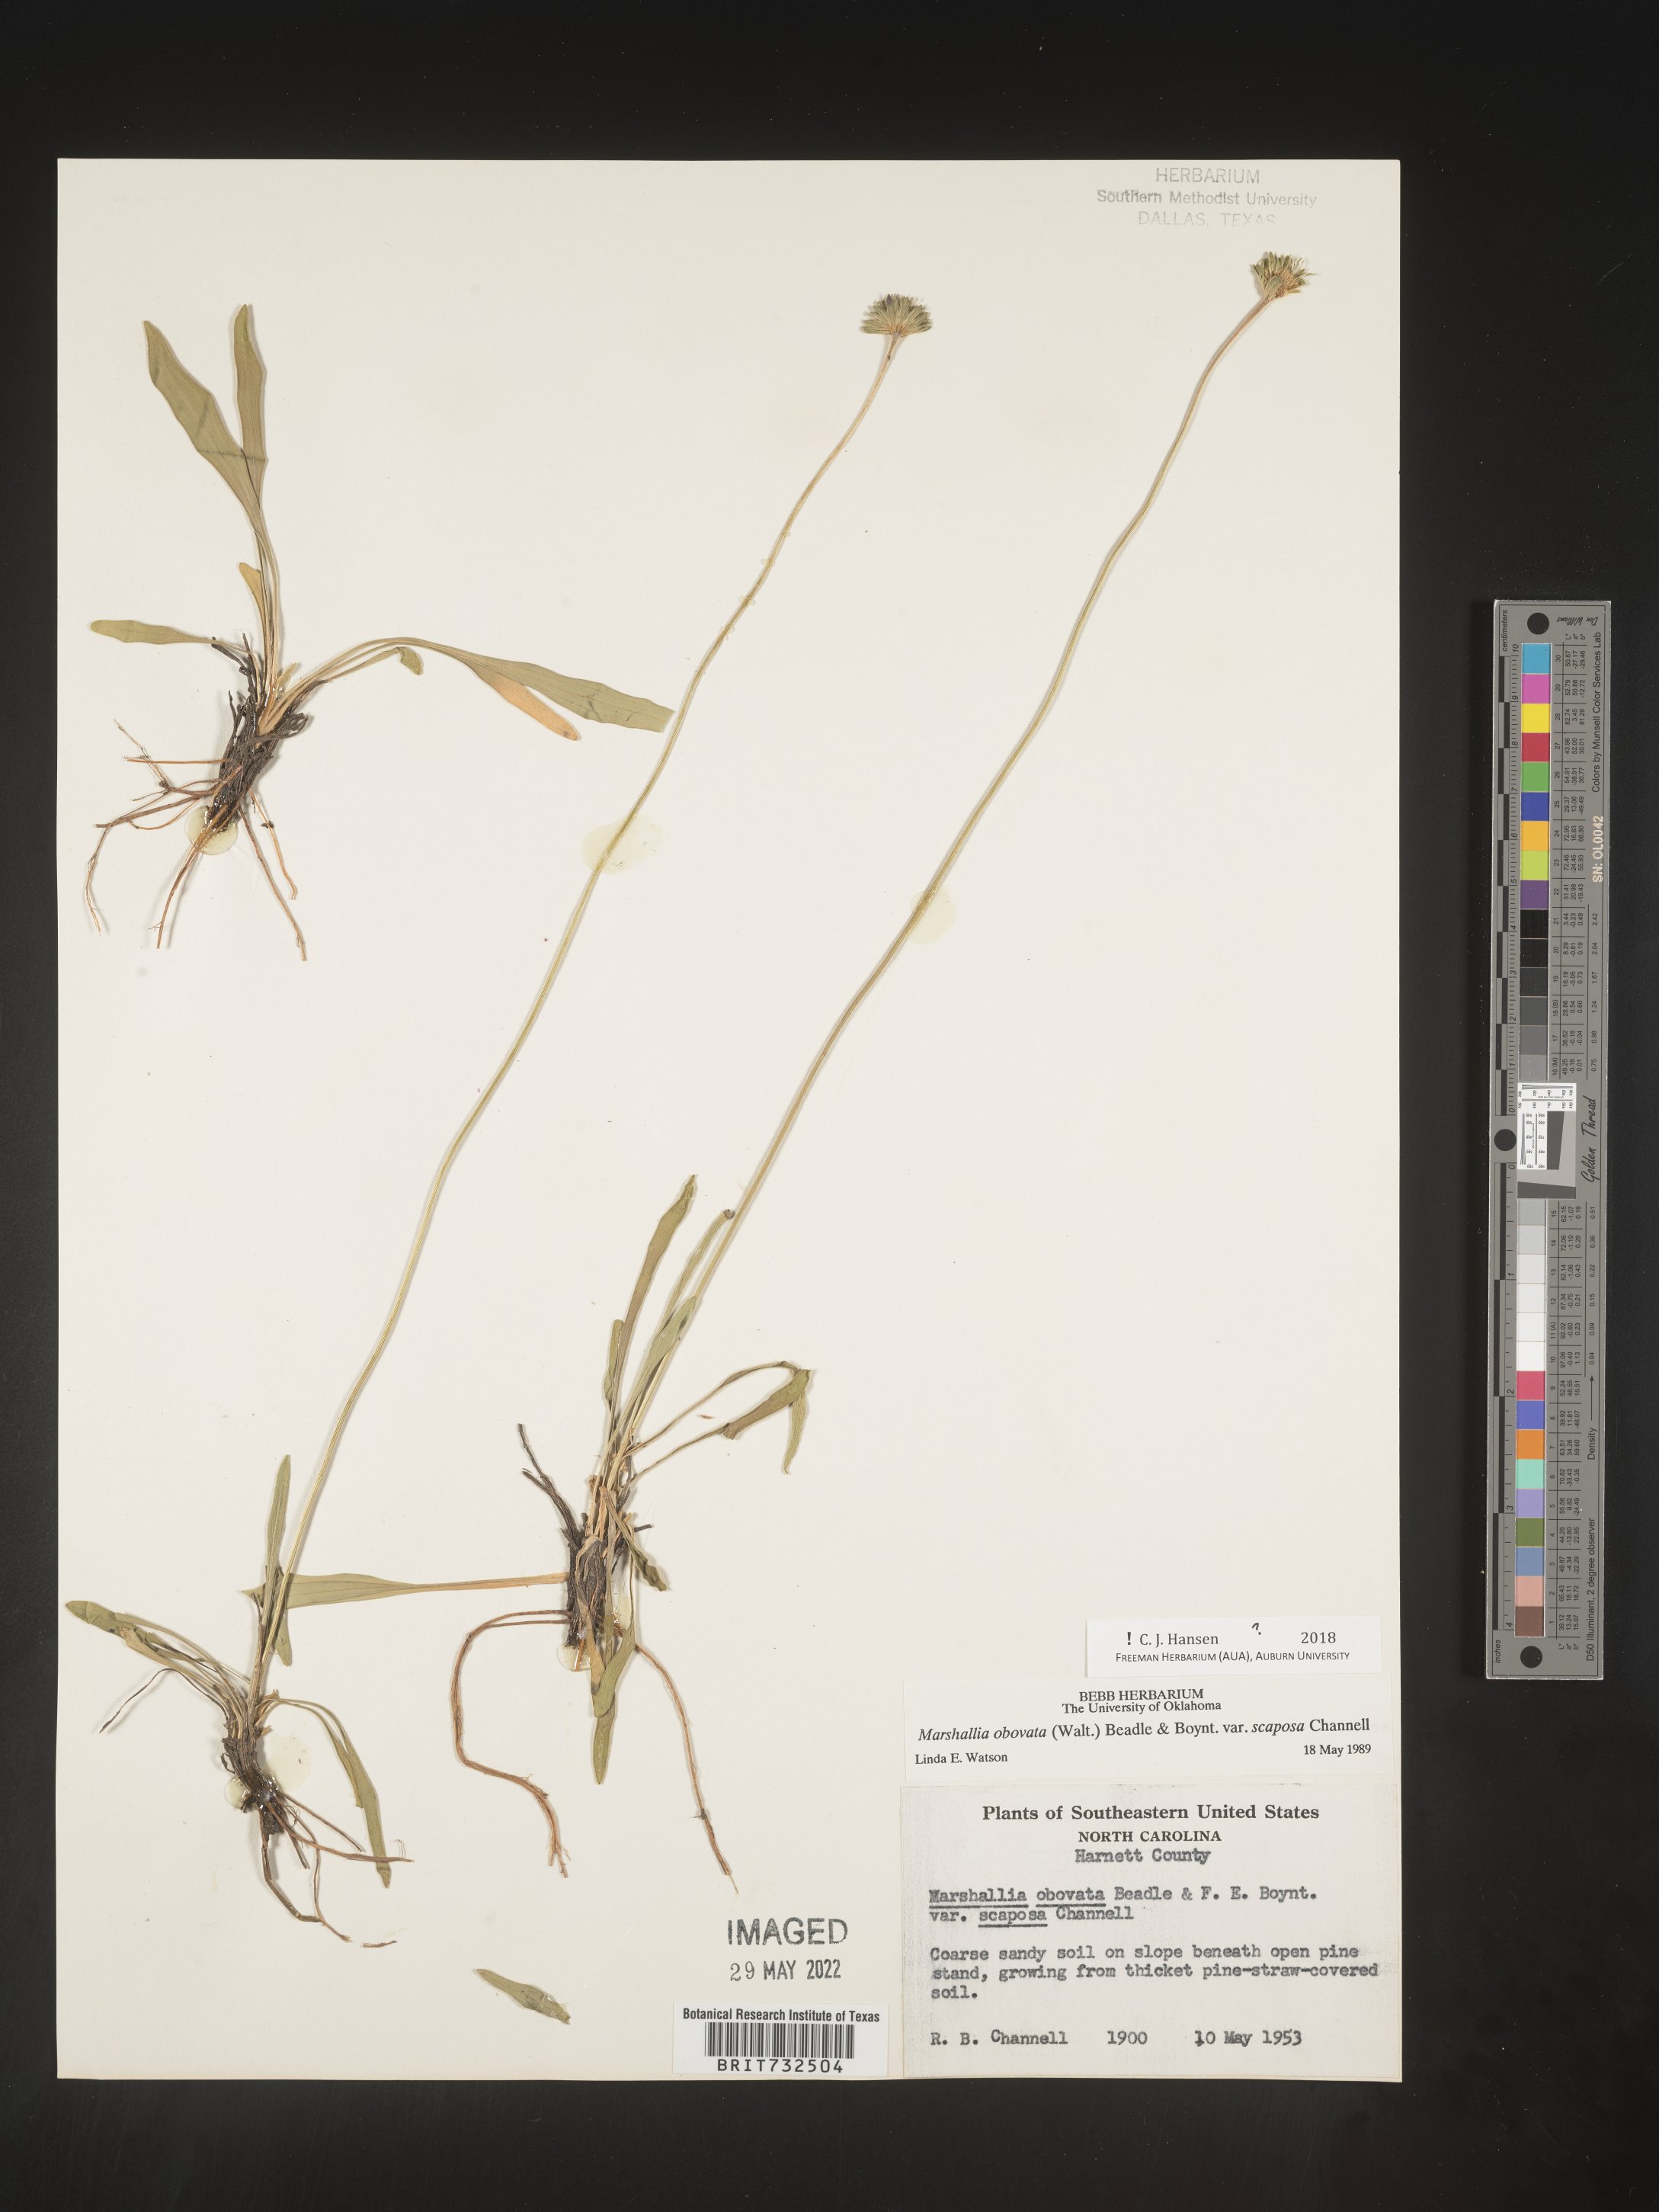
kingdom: Plantae
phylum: Tracheophyta
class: Magnoliopsida
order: Asterales
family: Asteraceae
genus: Marshallia
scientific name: Marshallia obovata
